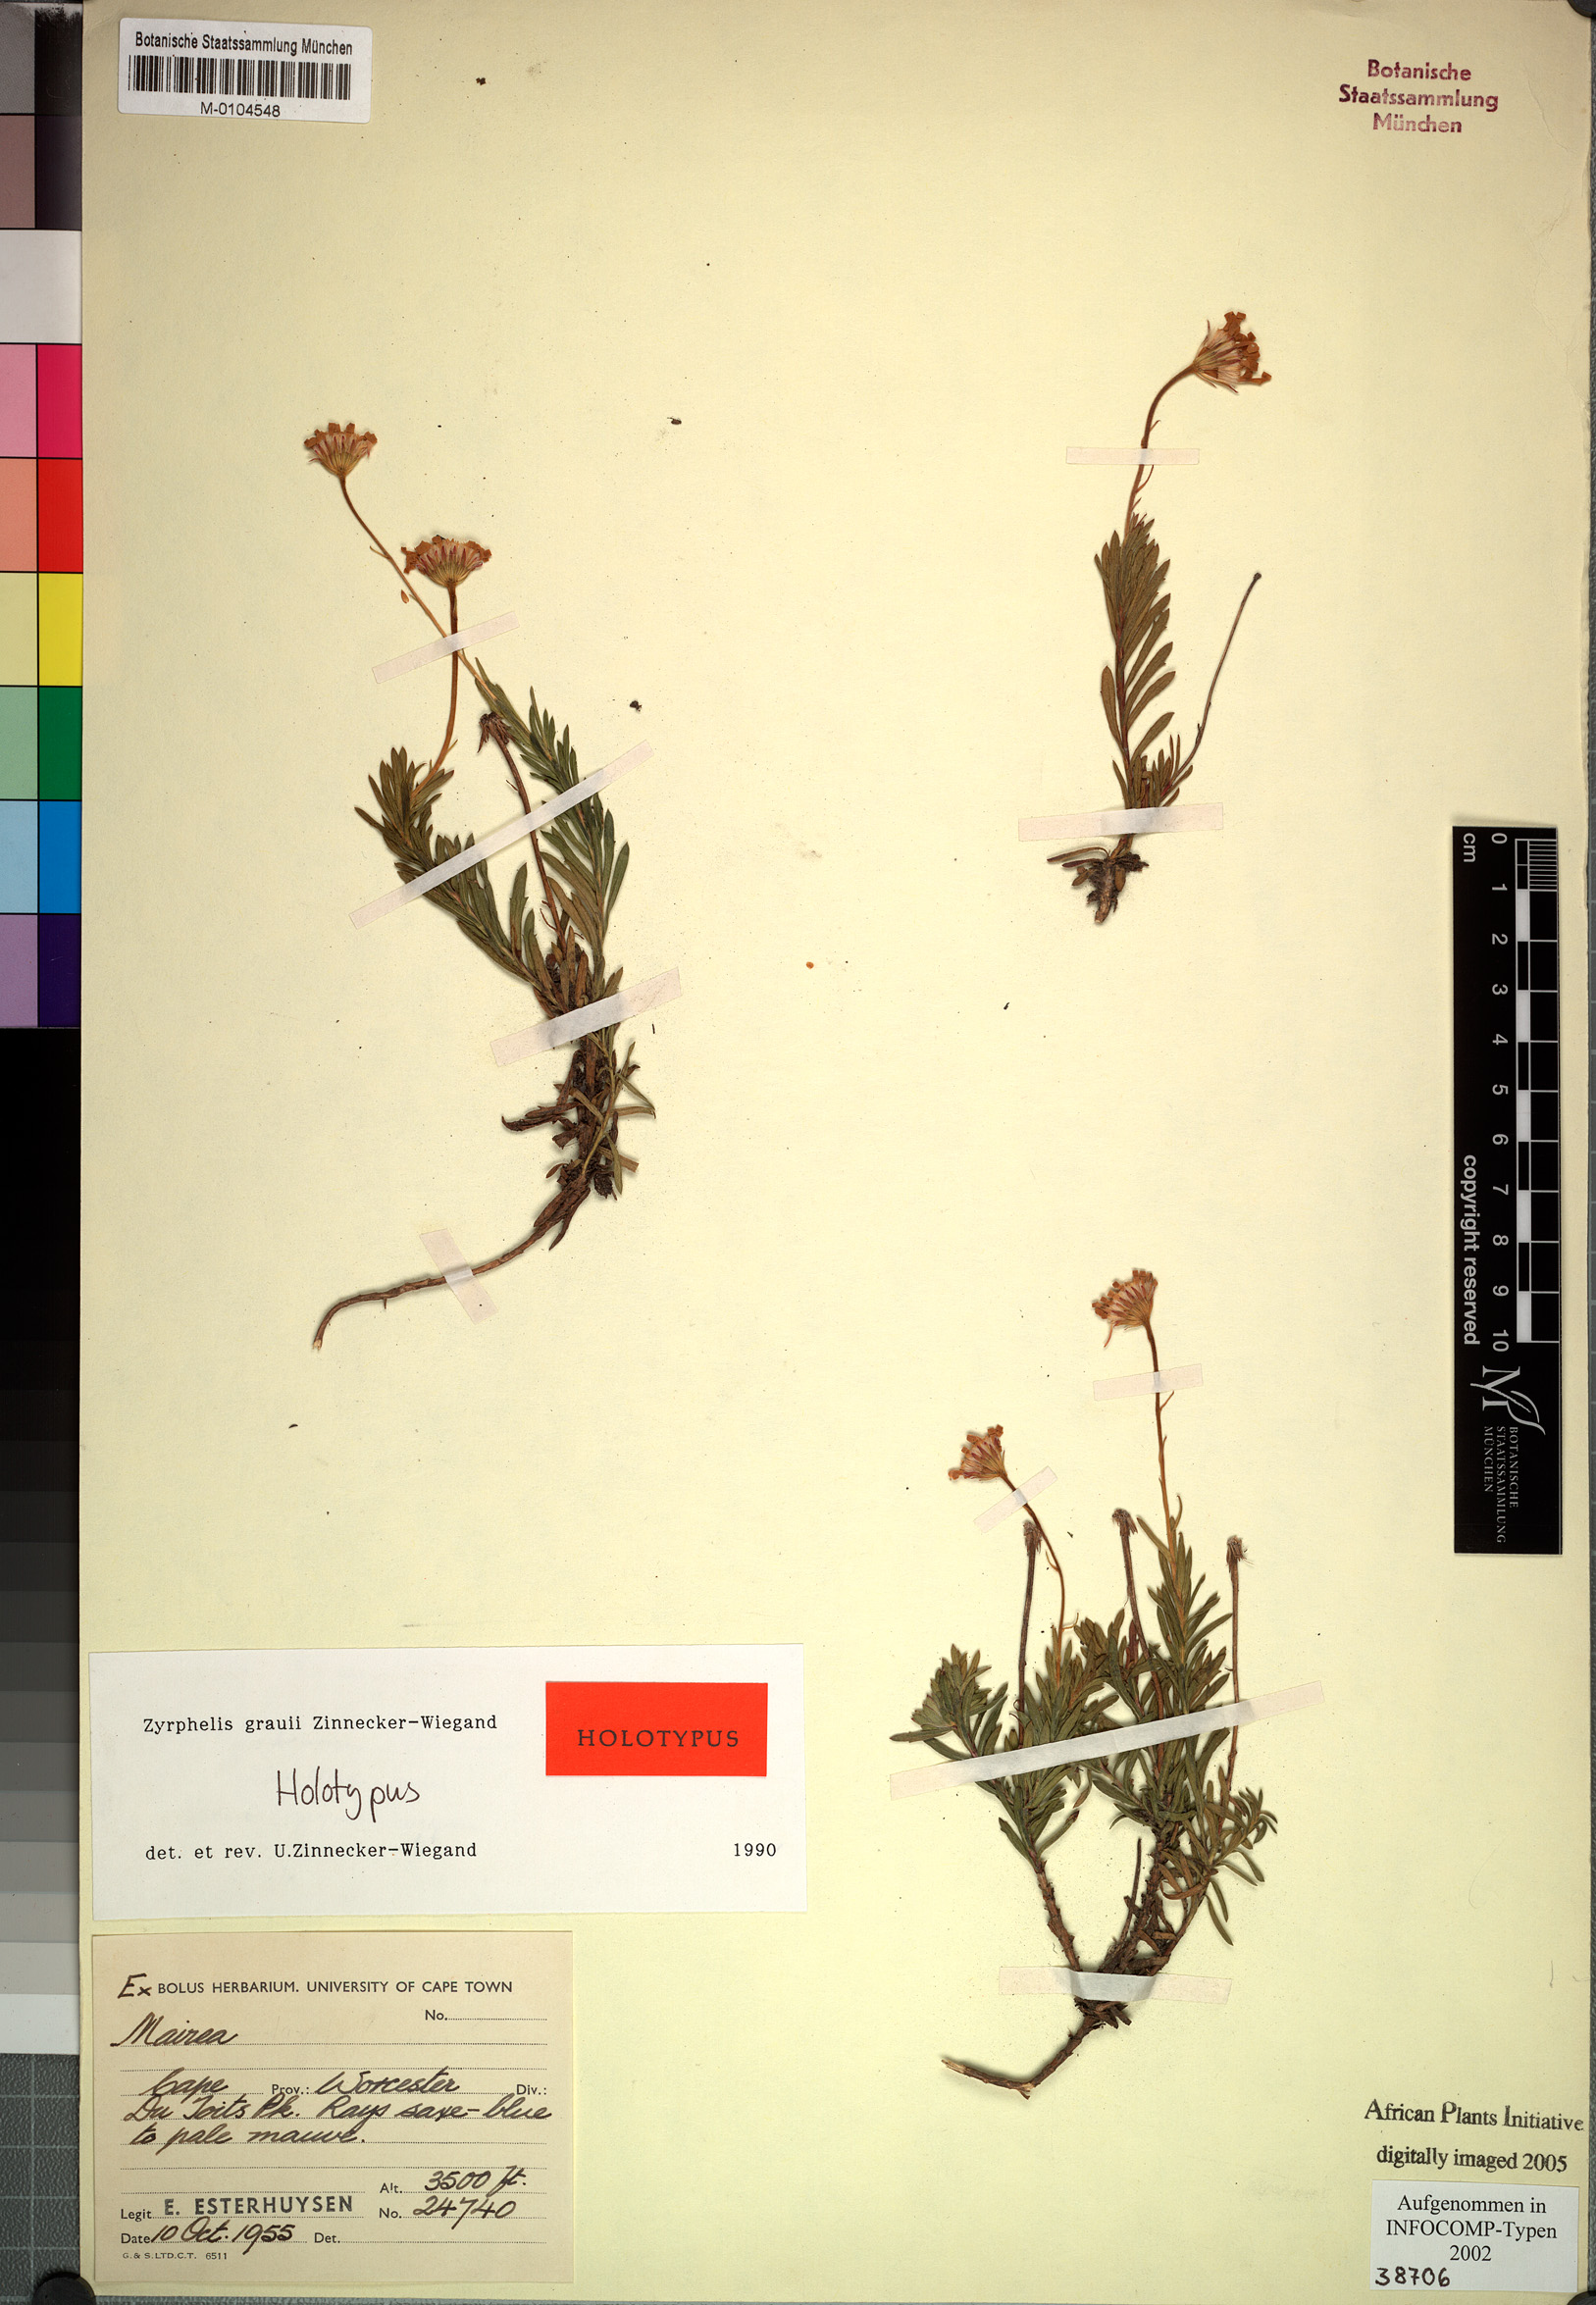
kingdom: Plantae
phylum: Tracheophyta
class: Magnoliopsida
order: Asterales
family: Asteraceae
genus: Zyrphelis
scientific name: Zyrphelis montana
